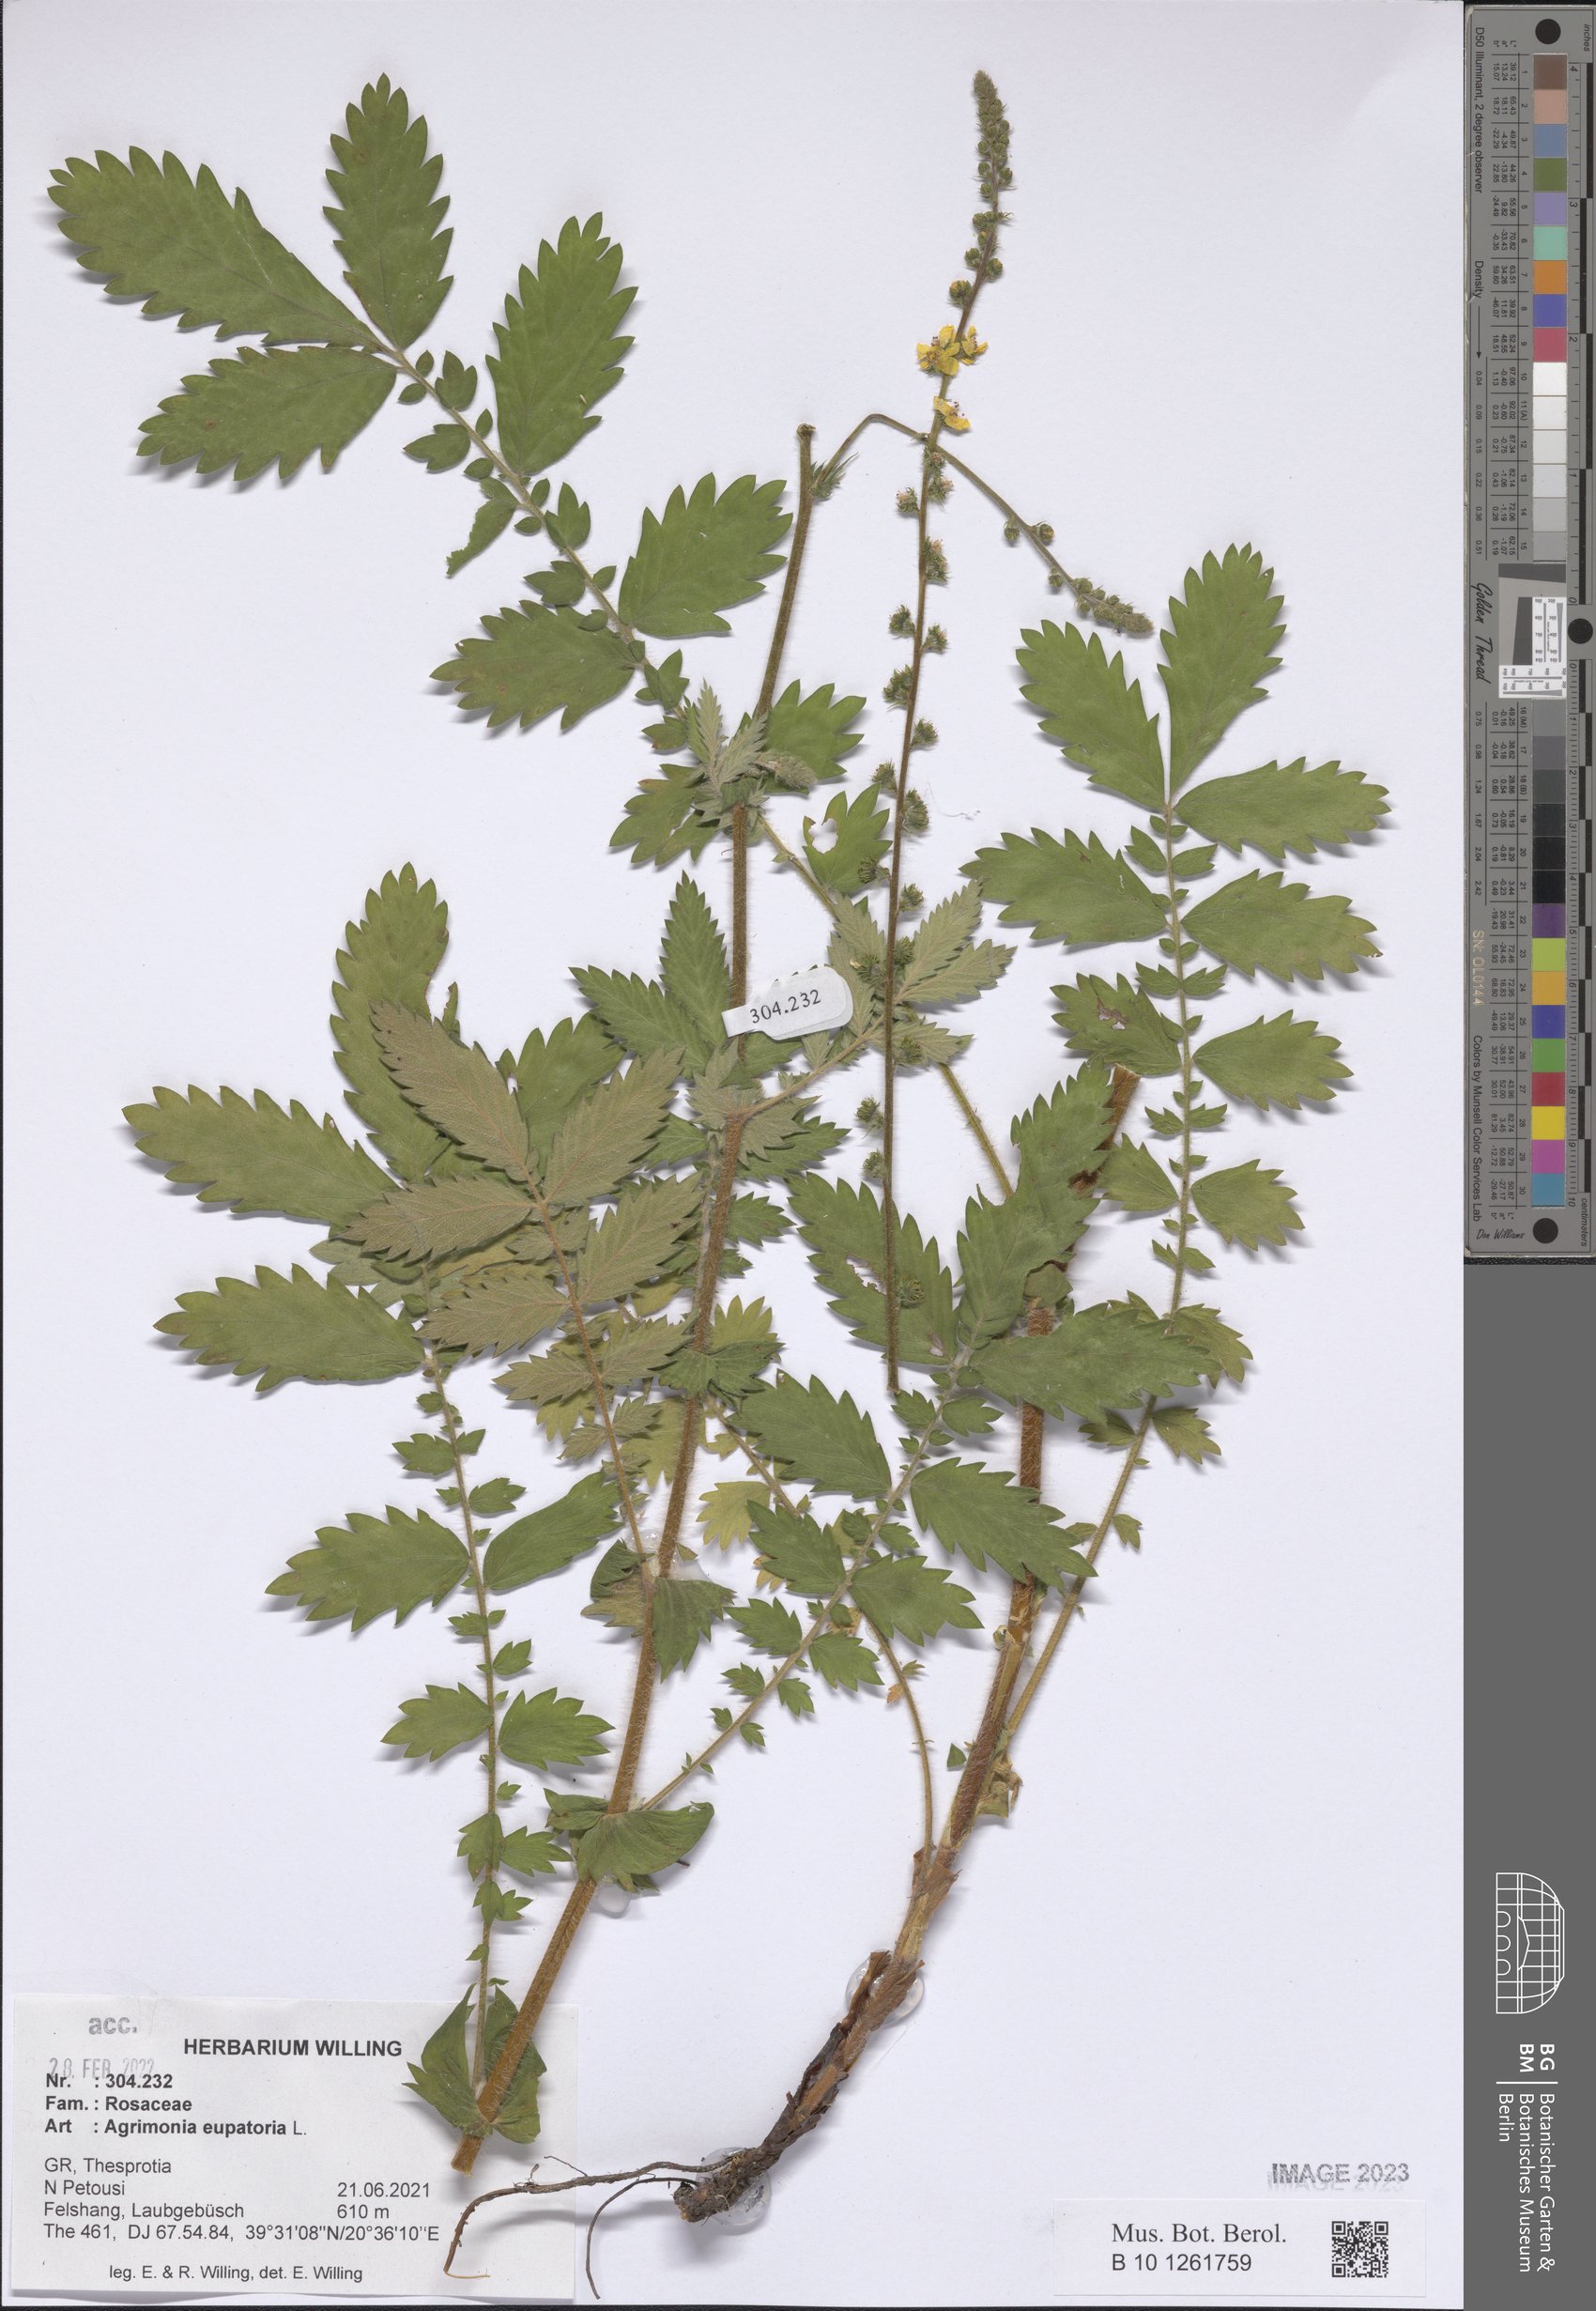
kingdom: Plantae
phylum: Tracheophyta
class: Magnoliopsida
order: Rosales
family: Rosaceae
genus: Agrimonia
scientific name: Agrimonia eupatoria
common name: Agrimony
